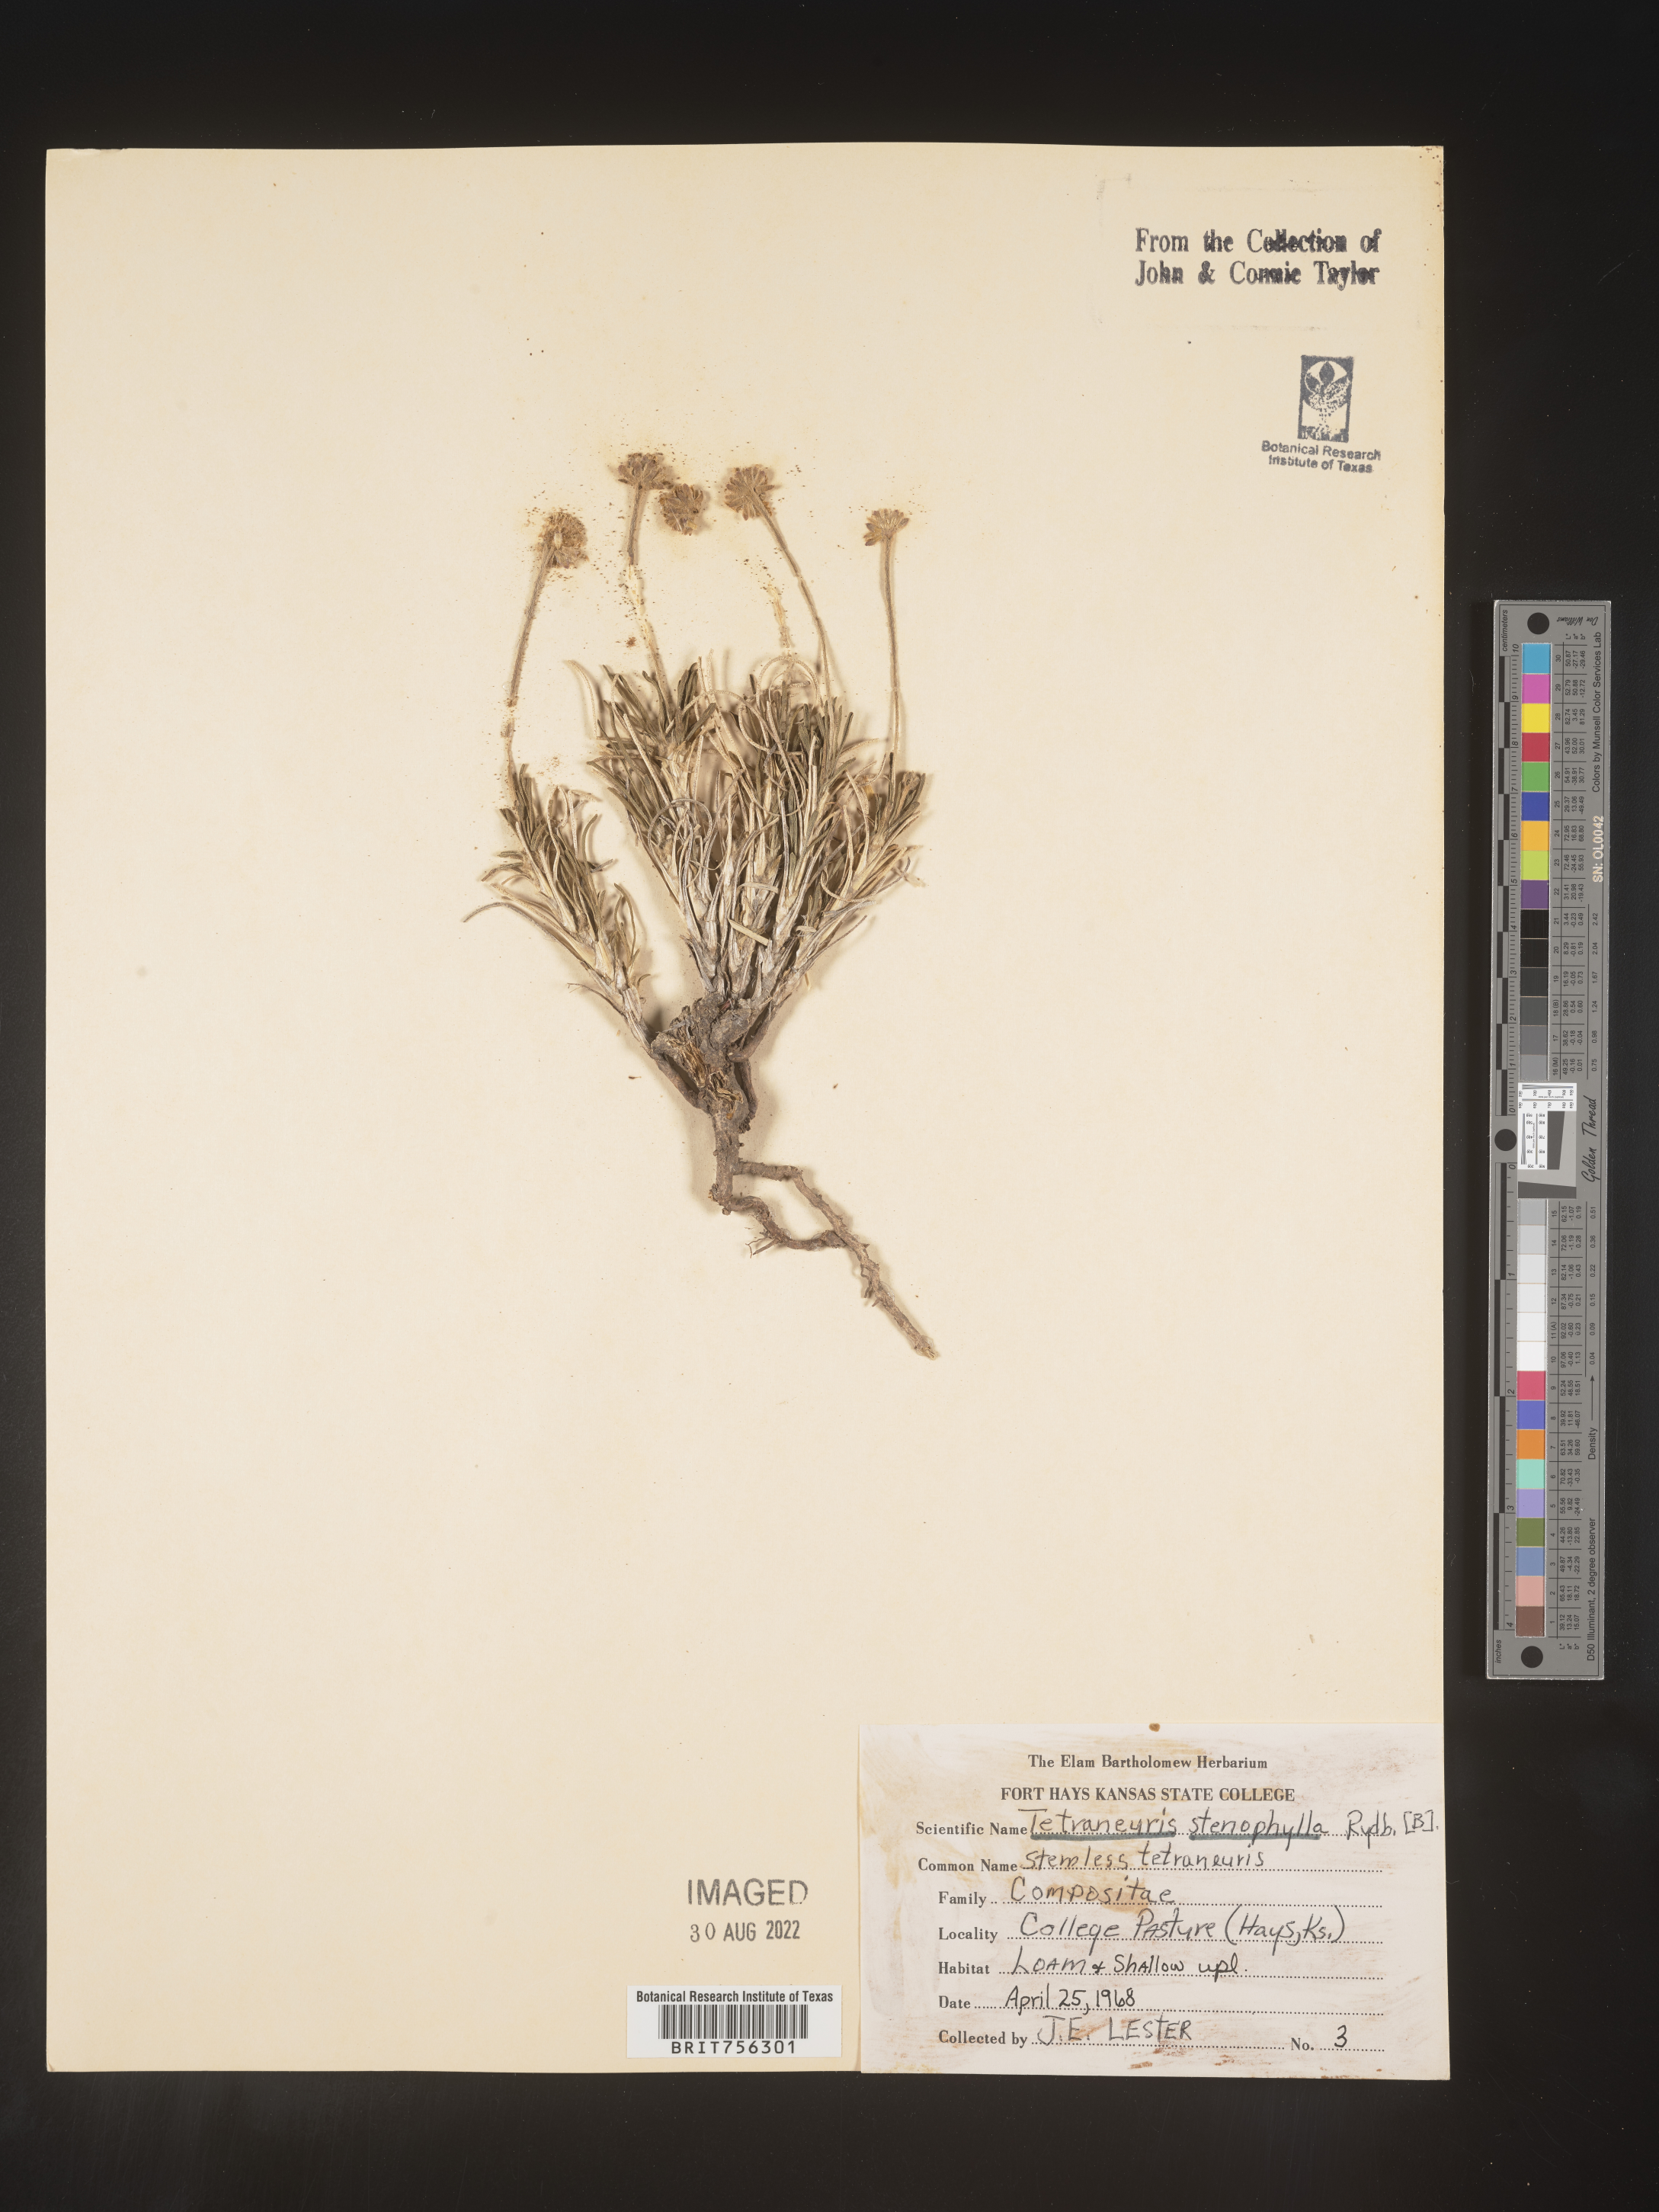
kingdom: Plantae
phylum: Tracheophyta
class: Magnoliopsida
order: Asterales
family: Asteraceae
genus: Tetraneuris
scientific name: Tetraneuris scaposa
